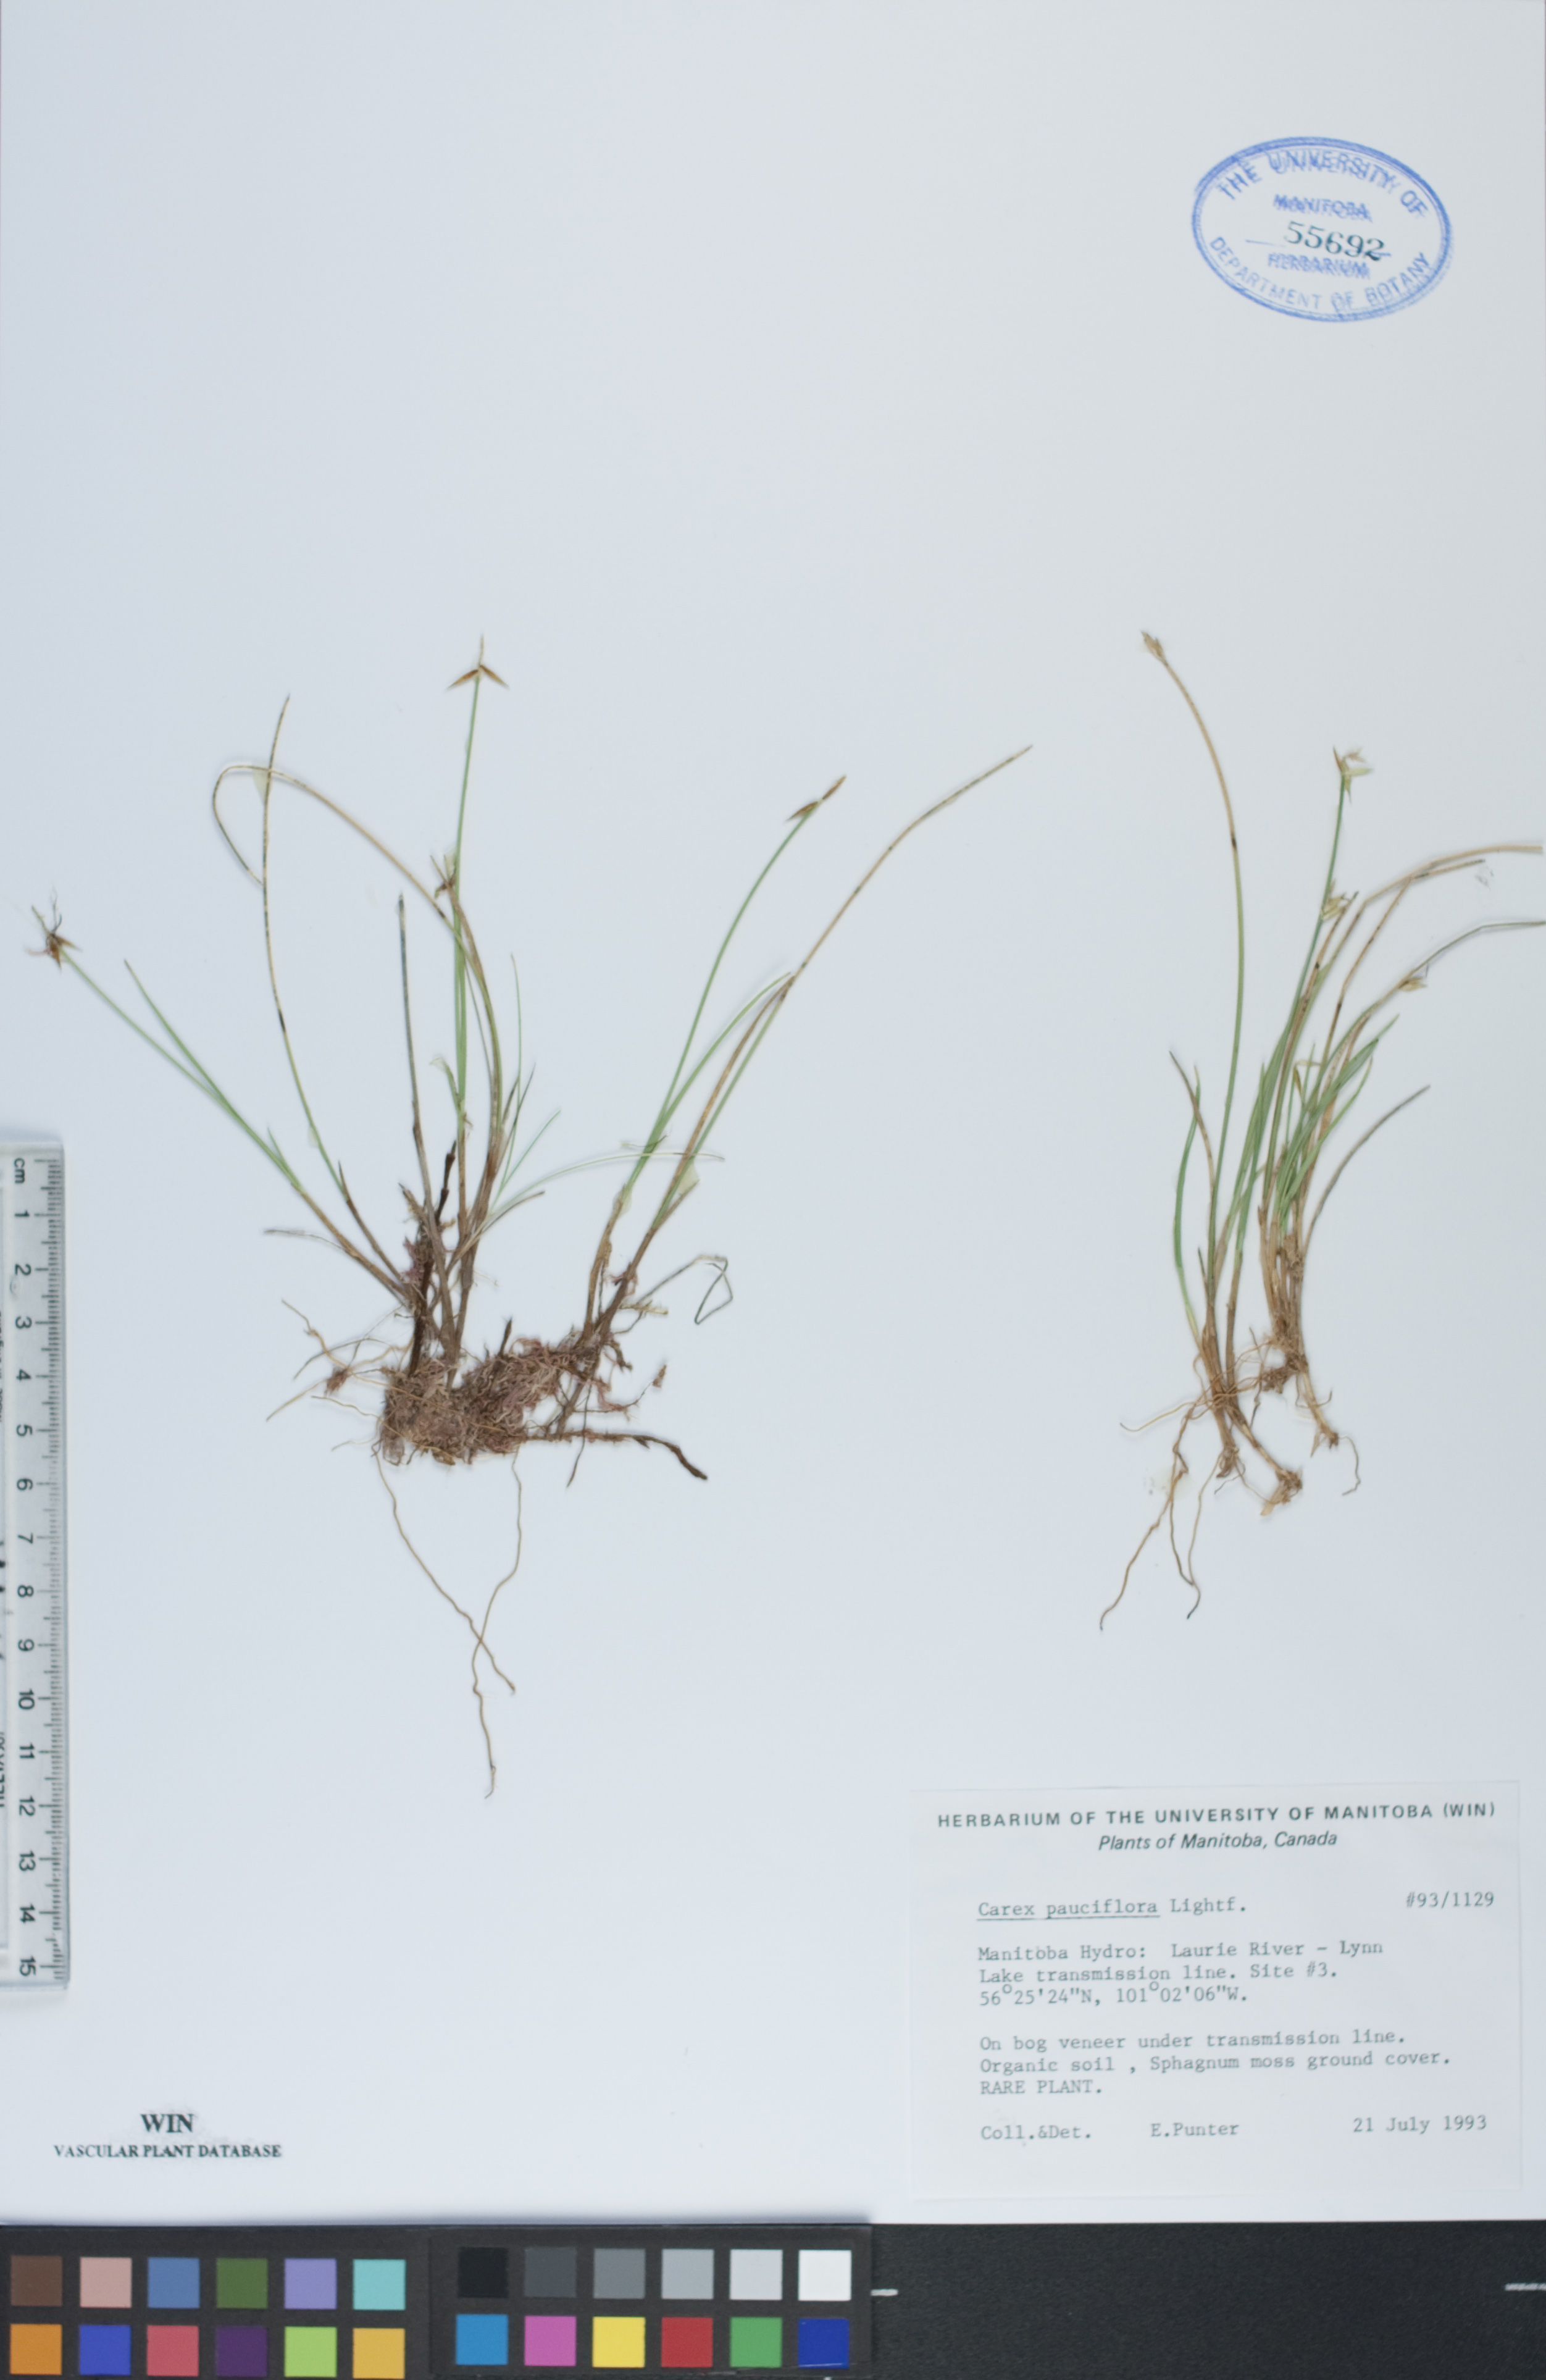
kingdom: Plantae
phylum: Tracheophyta
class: Liliopsida
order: Poales
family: Cyperaceae
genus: Carex
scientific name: Carex pauciflora
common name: Few-flowered sedge
